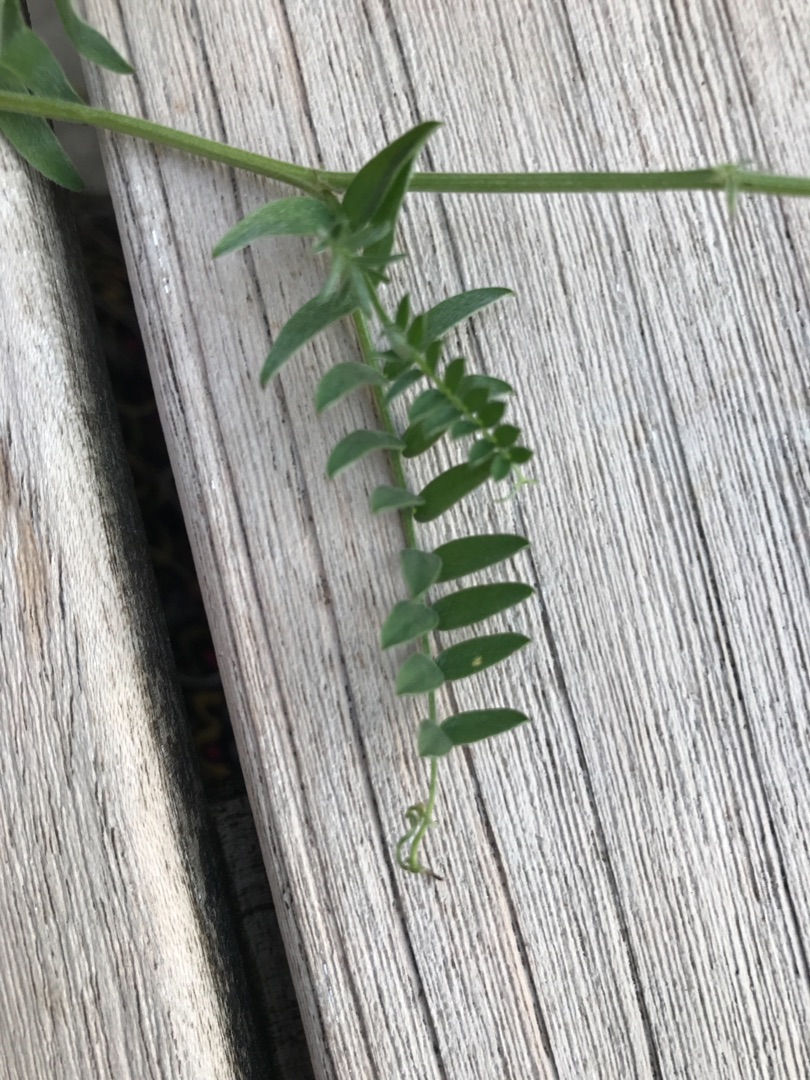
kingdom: Plantae
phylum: Tracheophyta
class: Magnoliopsida
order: Fabales
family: Fabaceae
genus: Vicia
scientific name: Vicia cracca
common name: Muse-vikke
